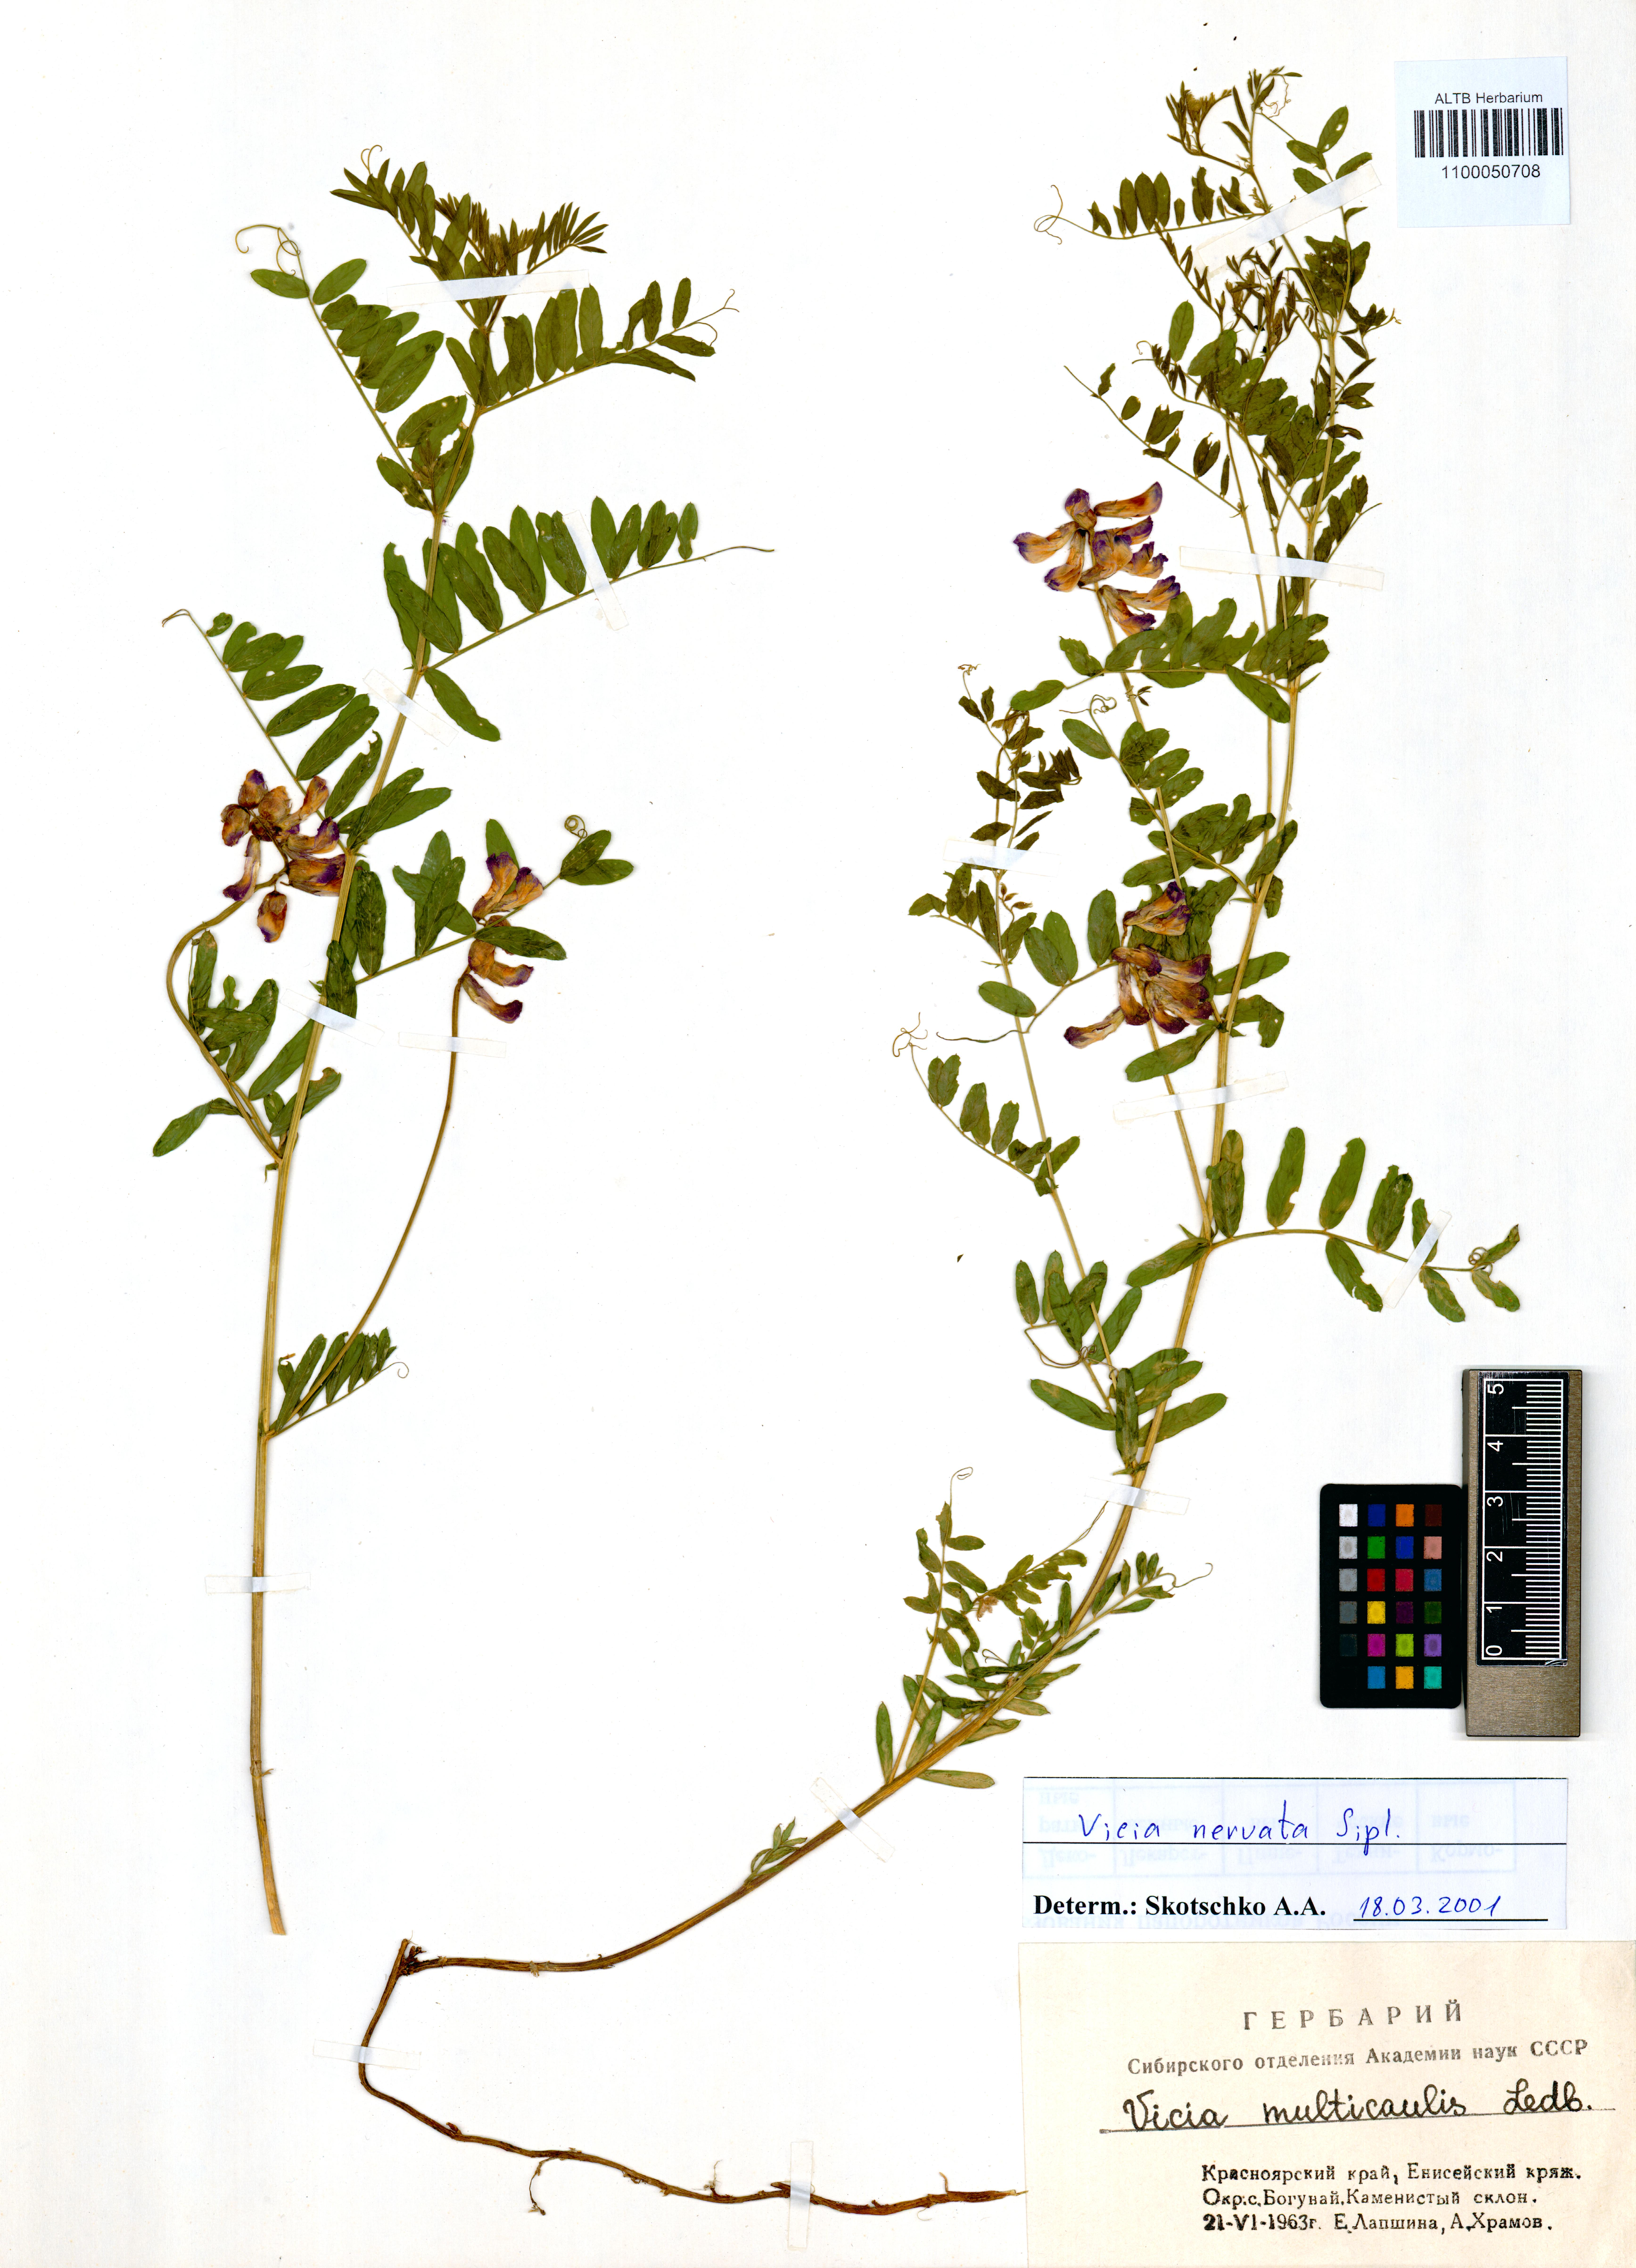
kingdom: Plantae
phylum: Tracheophyta
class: Magnoliopsida
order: Fabales
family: Fabaceae
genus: Vicia
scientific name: Vicia multicaulis
